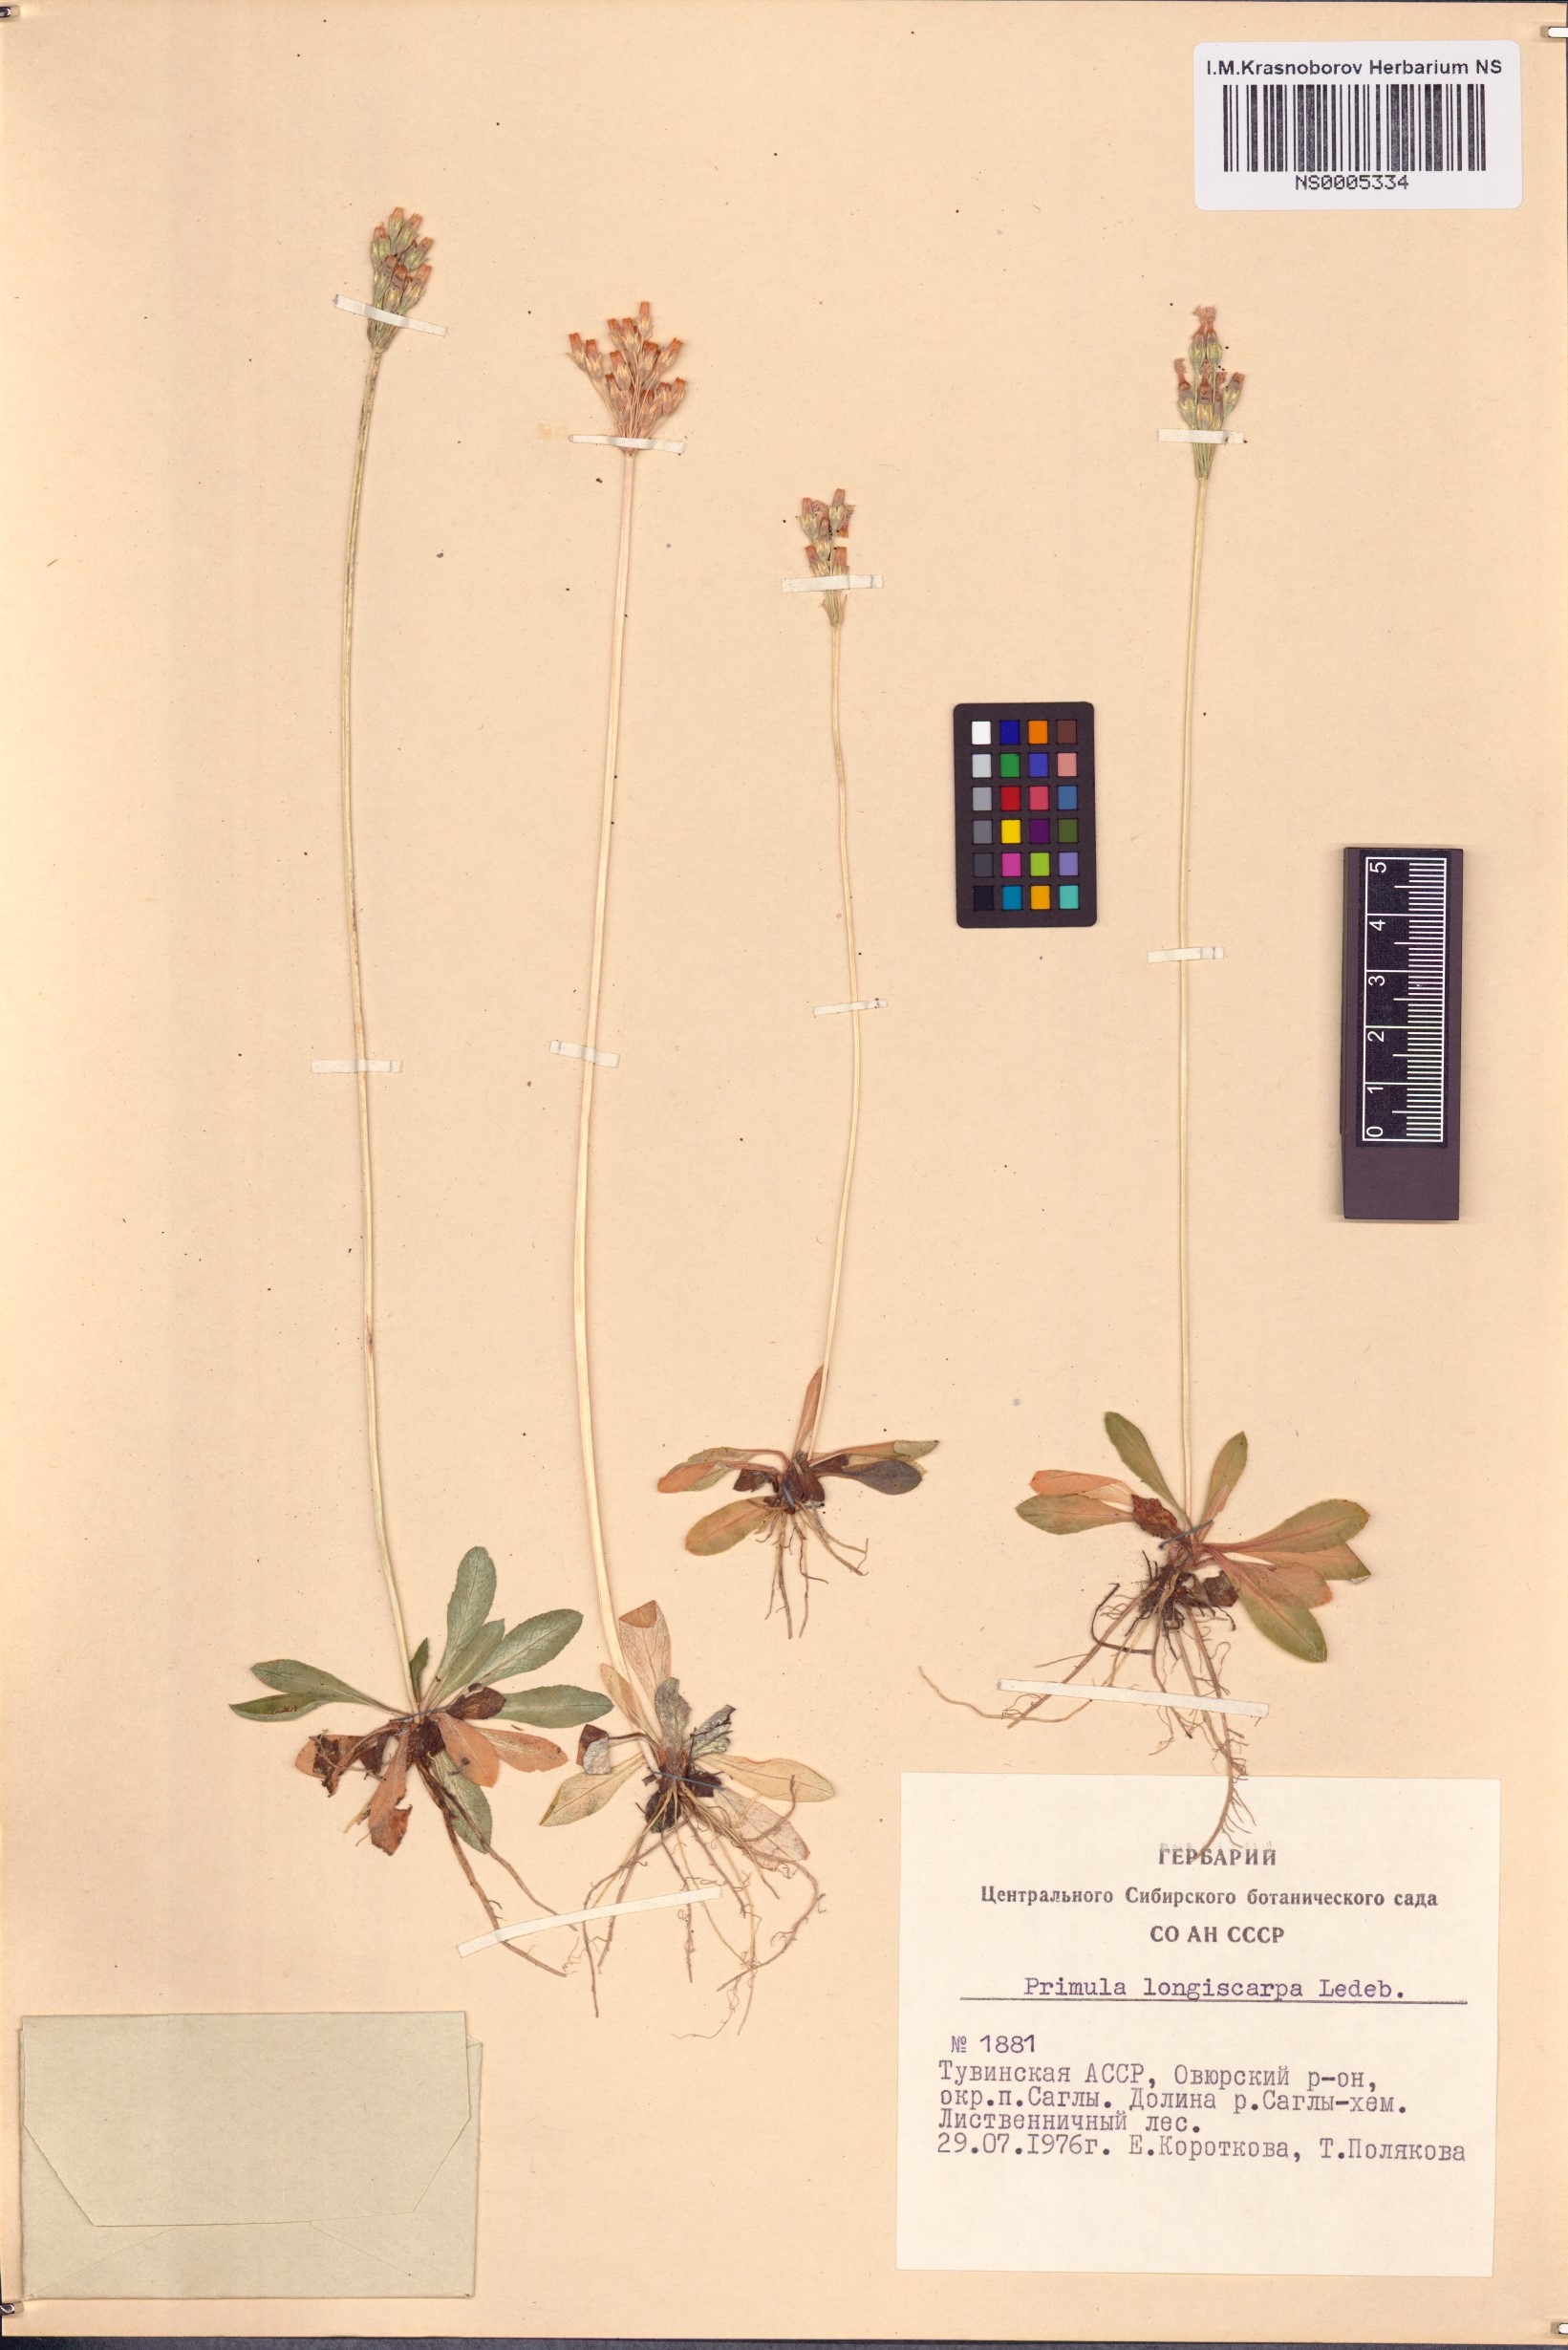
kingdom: Plantae
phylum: Tracheophyta
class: Magnoliopsida
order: Ericales
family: Primulaceae
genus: Primula
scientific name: Primula longiscapa
